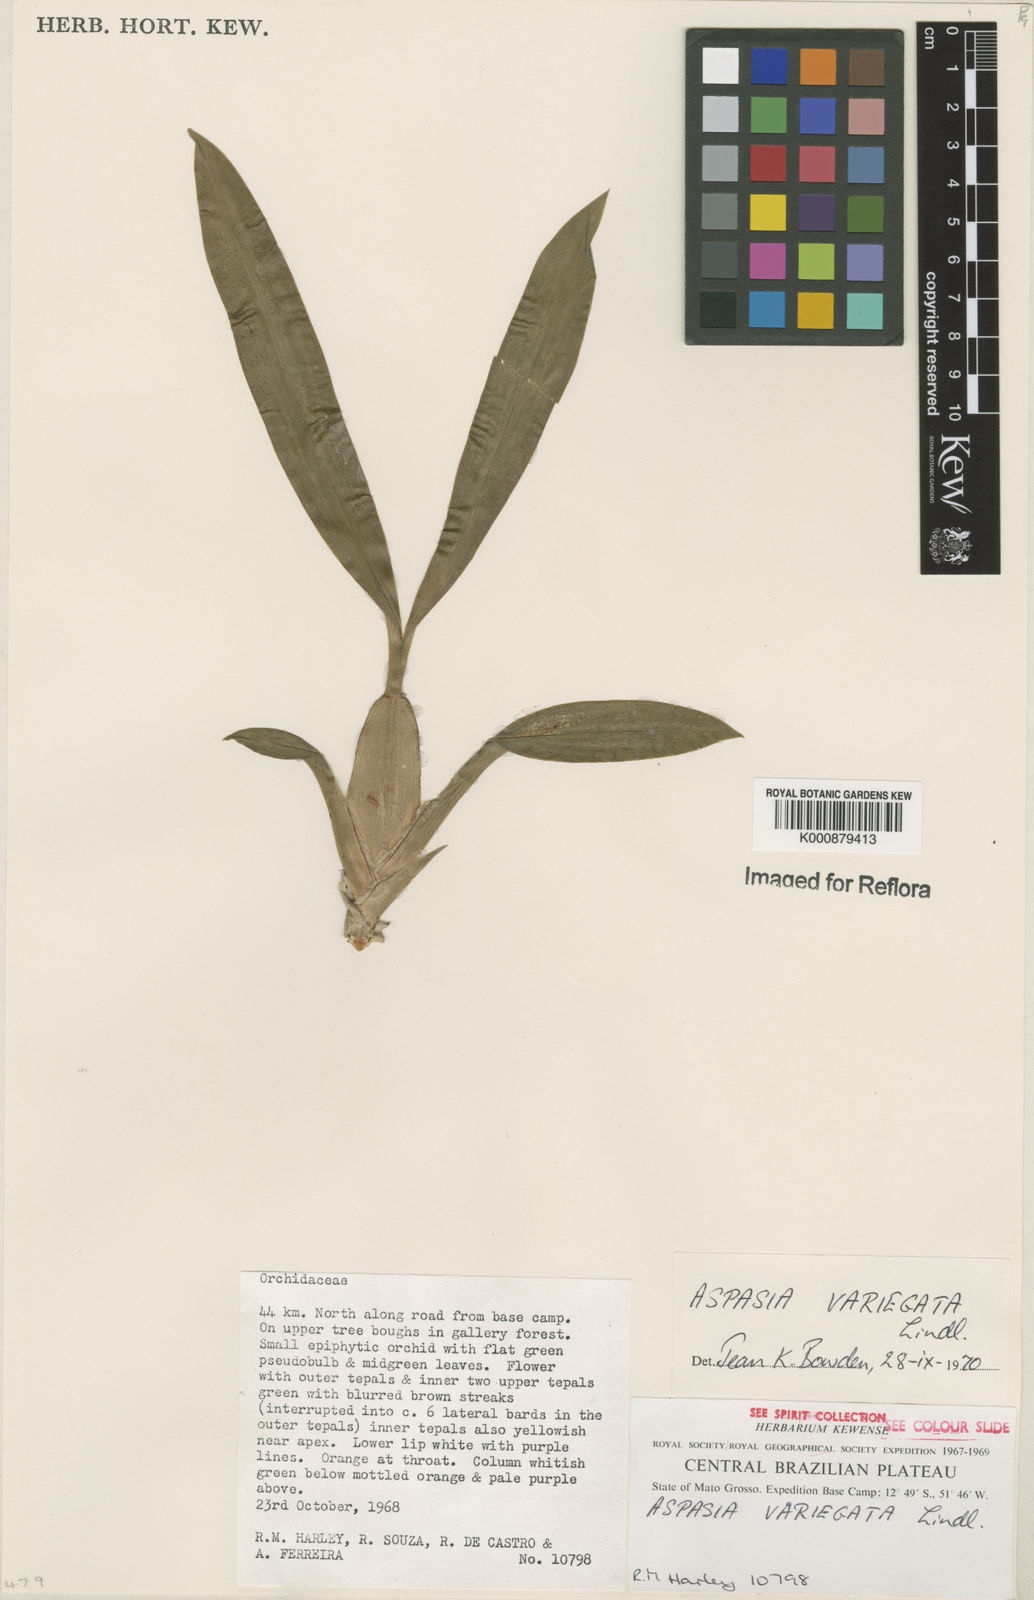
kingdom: Plantae
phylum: Tracheophyta
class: Liliopsida
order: Asparagales
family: Orchidaceae
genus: Aspasia
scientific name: Aspasia variegata
